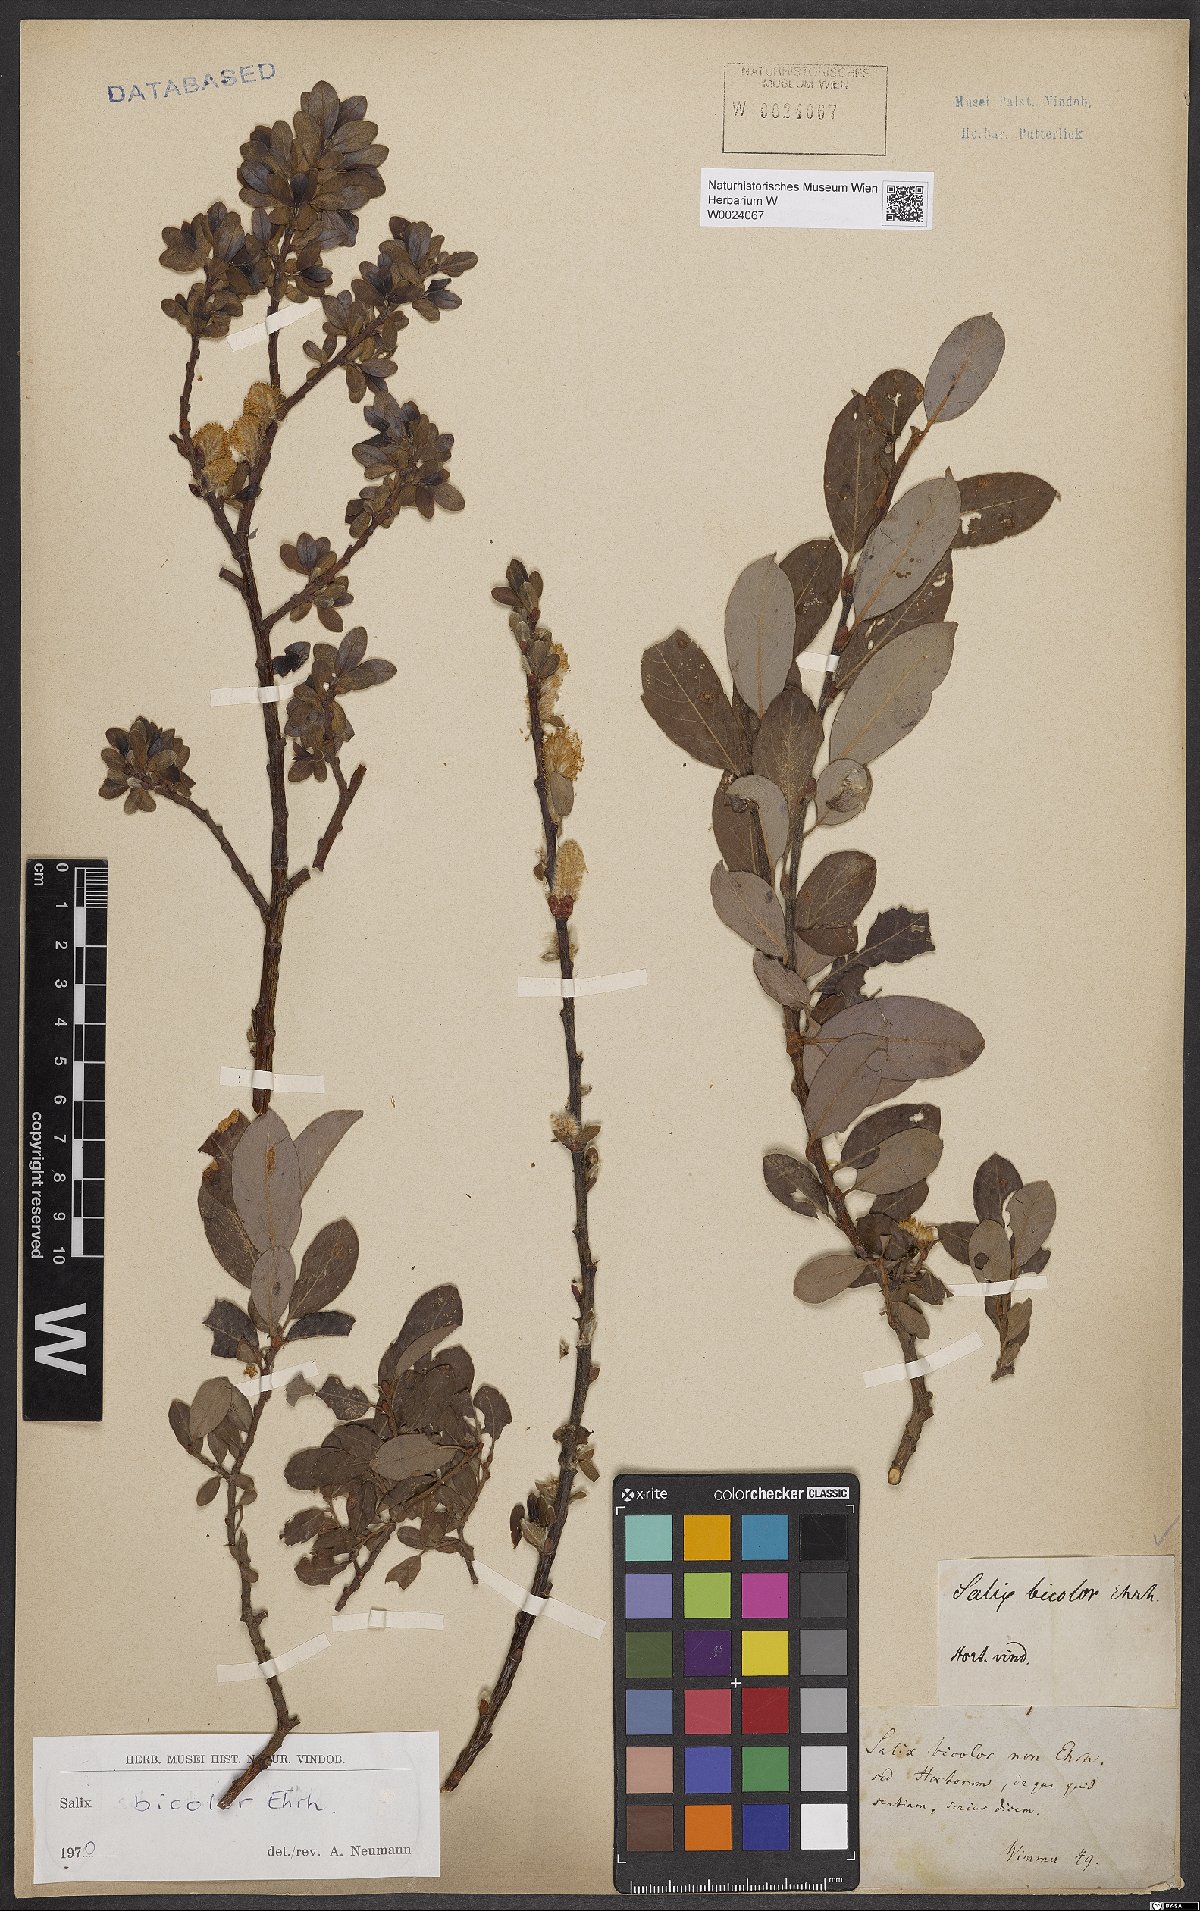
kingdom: Plantae
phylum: Tracheophyta
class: Magnoliopsida
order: Malpighiales
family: Salicaceae
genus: Salix
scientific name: Salix bicolor
